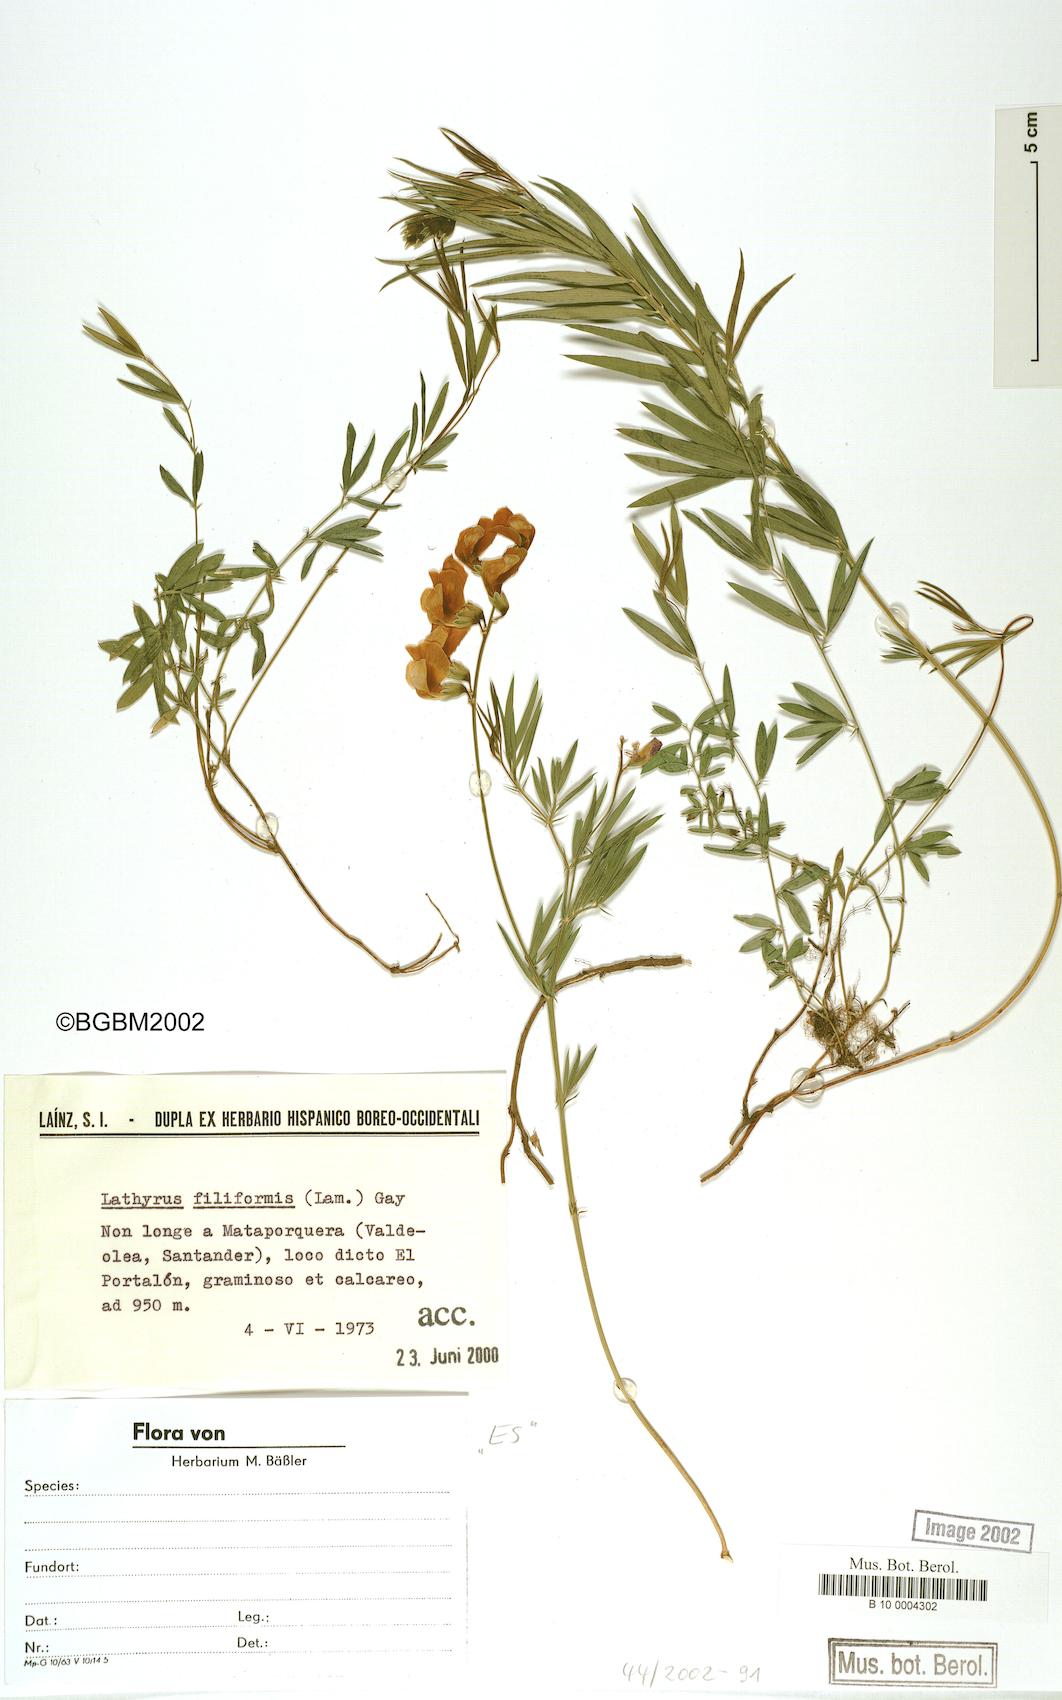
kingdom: Plantae
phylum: Tracheophyta
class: Magnoliopsida
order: Fabales
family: Fabaceae
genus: Lathyrus
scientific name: Lathyrus filiformis
